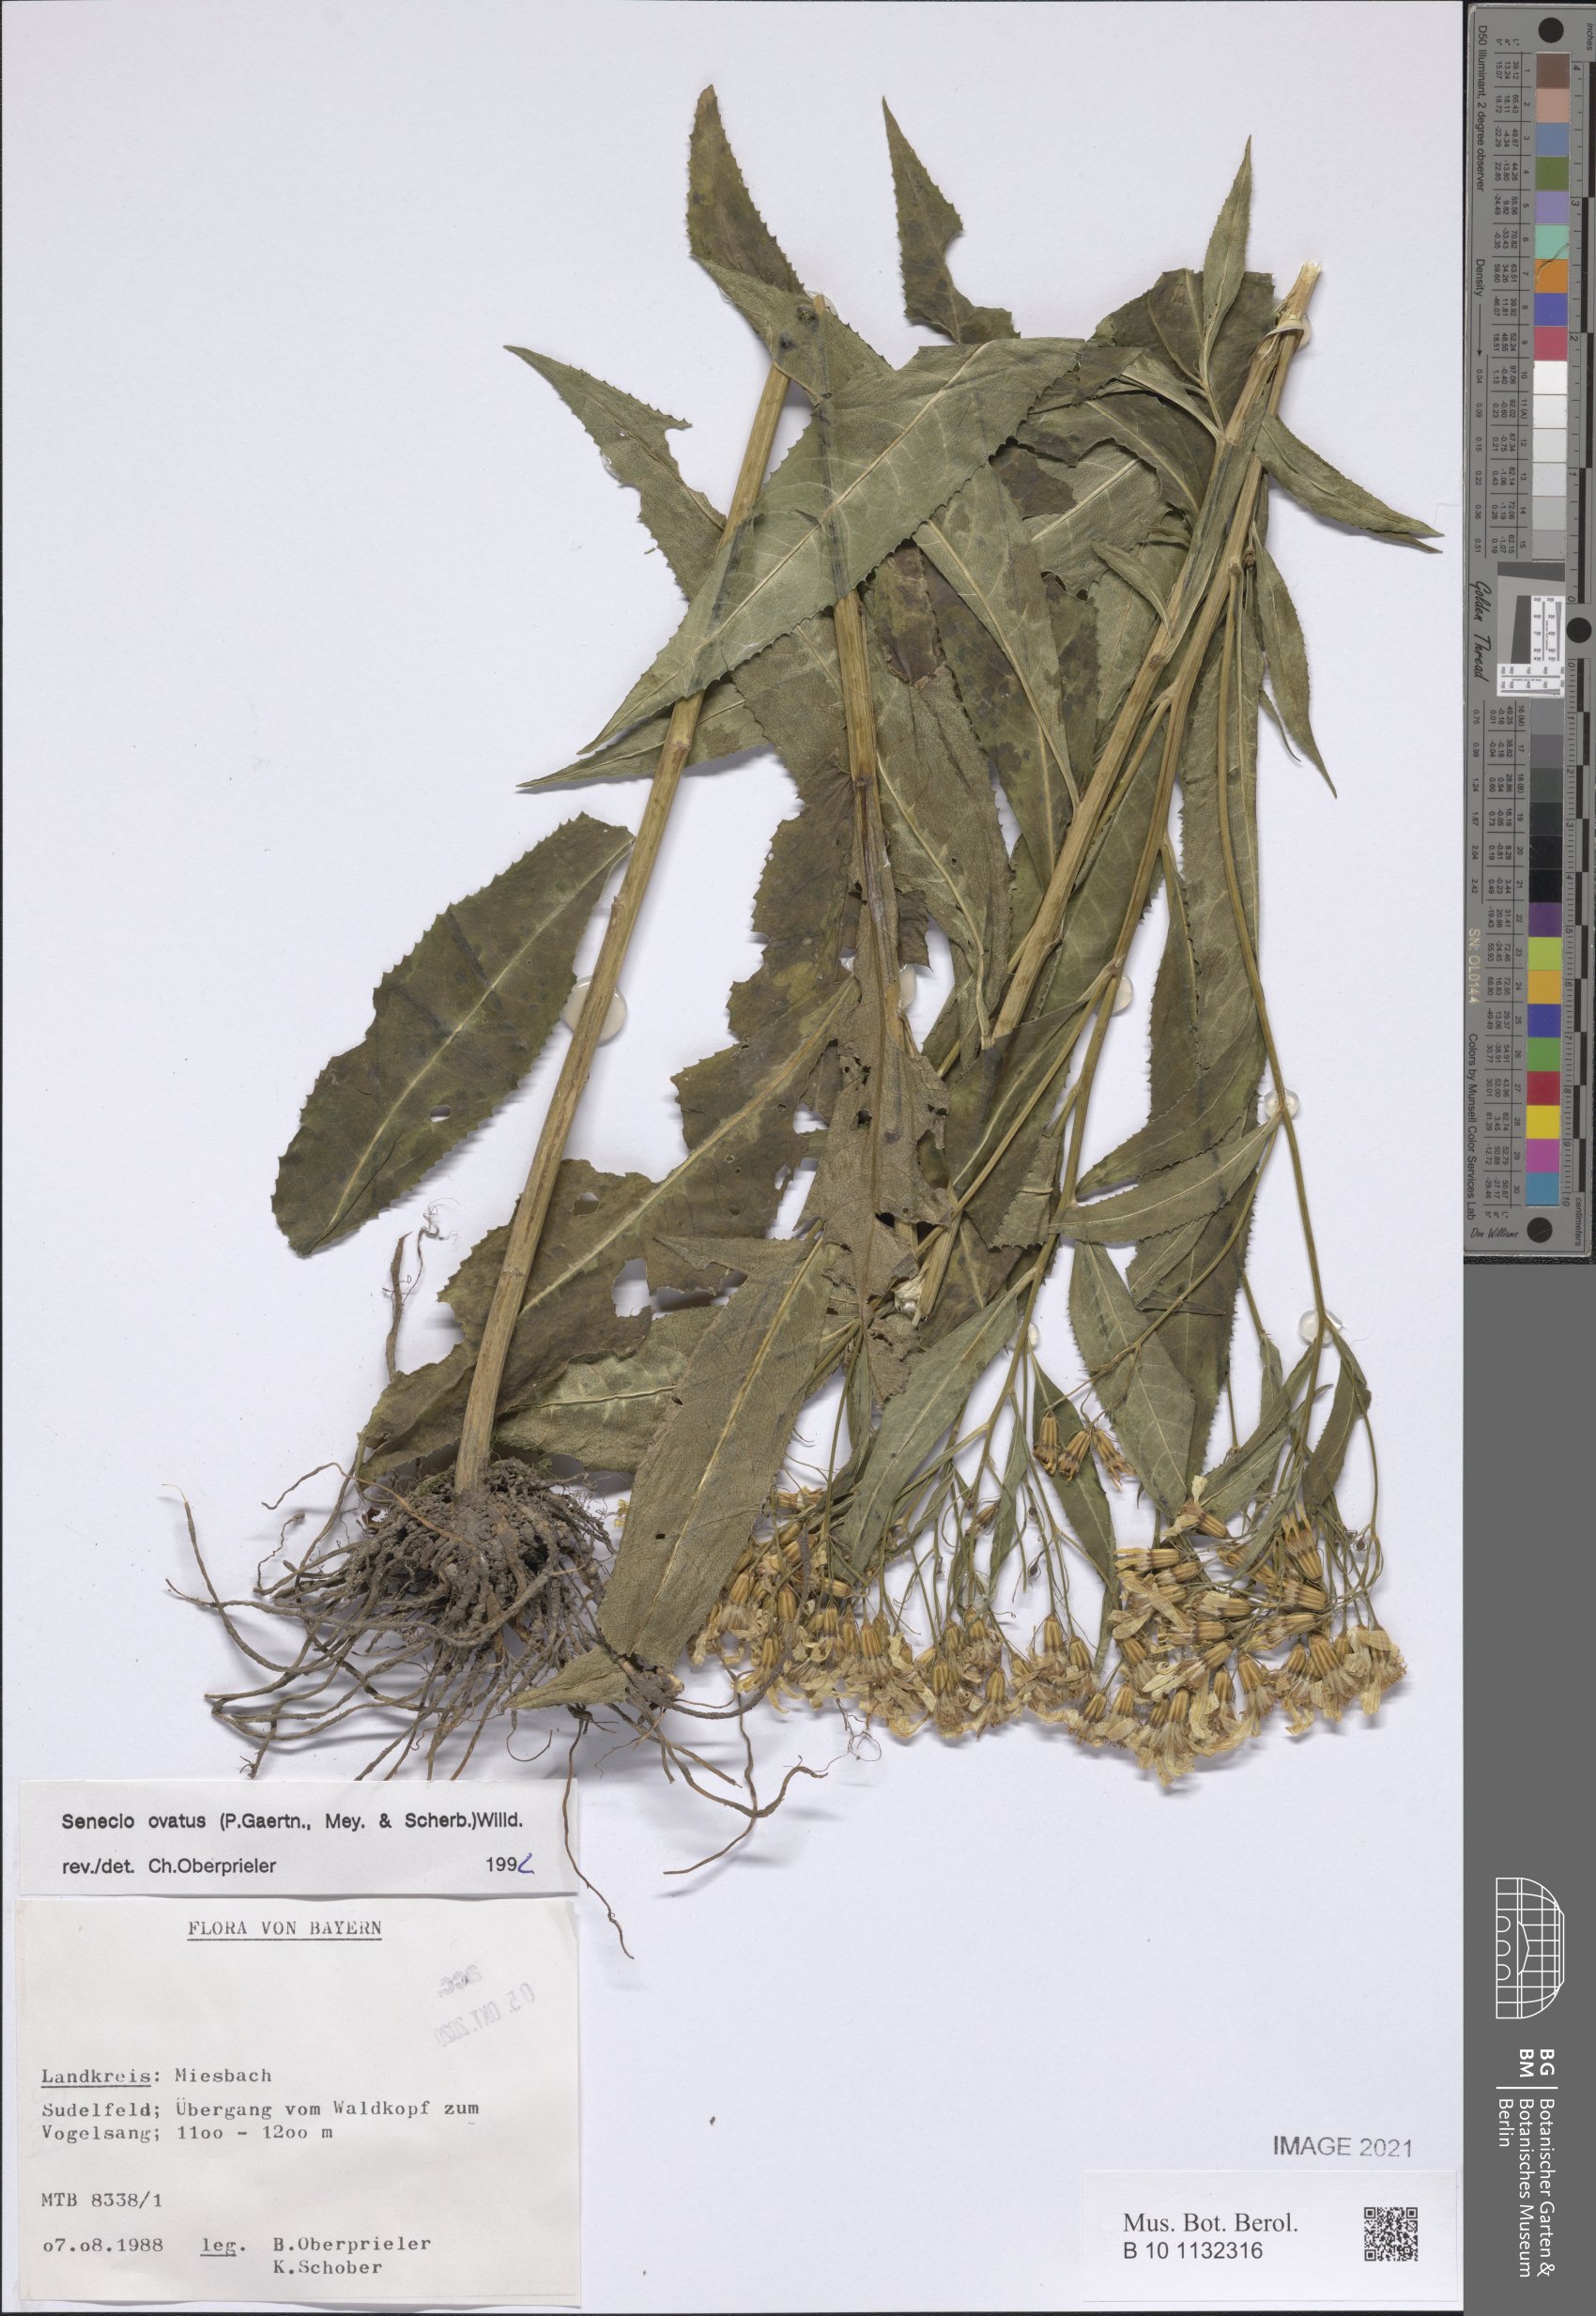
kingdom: Plantae
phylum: Tracheophyta
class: Magnoliopsida
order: Asterales
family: Asteraceae
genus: Senecio
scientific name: Senecio ovatus
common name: Wood ragwort
